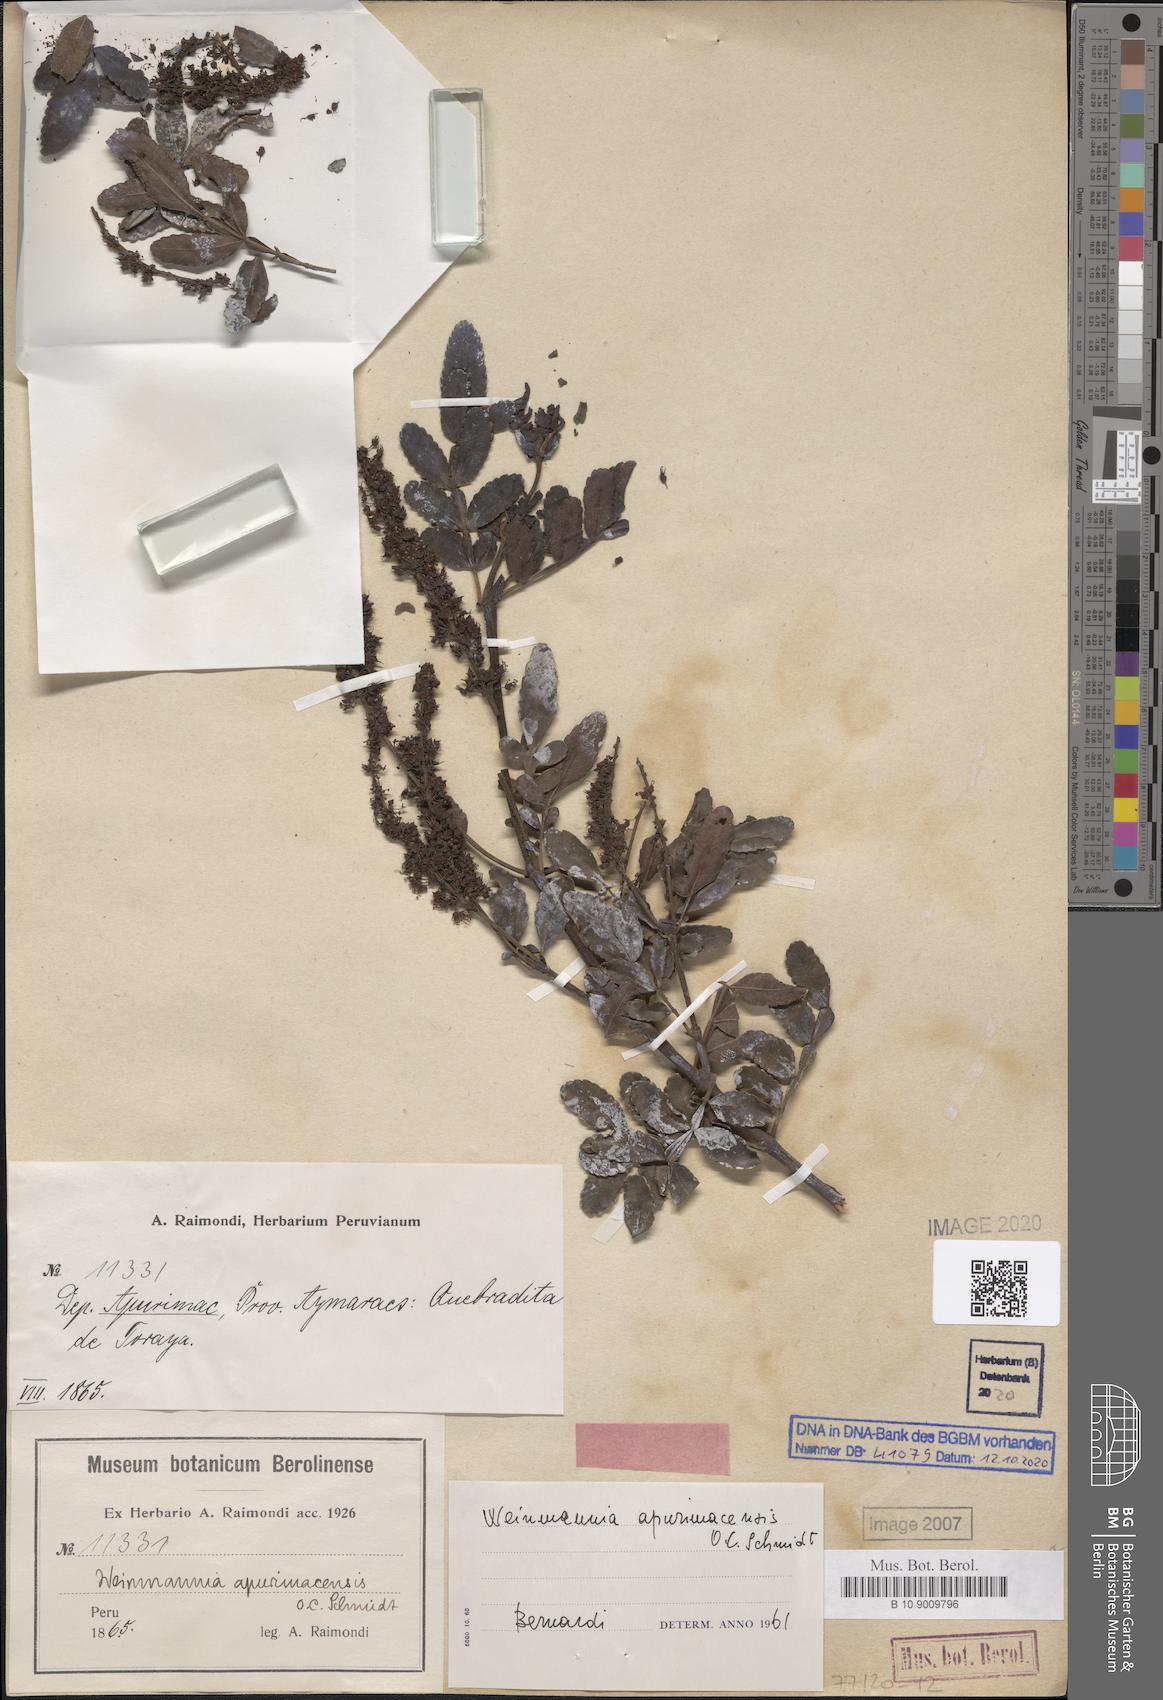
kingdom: Plantae
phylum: Tracheophyta
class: Magnoliopsida
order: Oxalidales
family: Cunoniaceae
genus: Weinmannia
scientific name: Weinmannia apurimacensis
